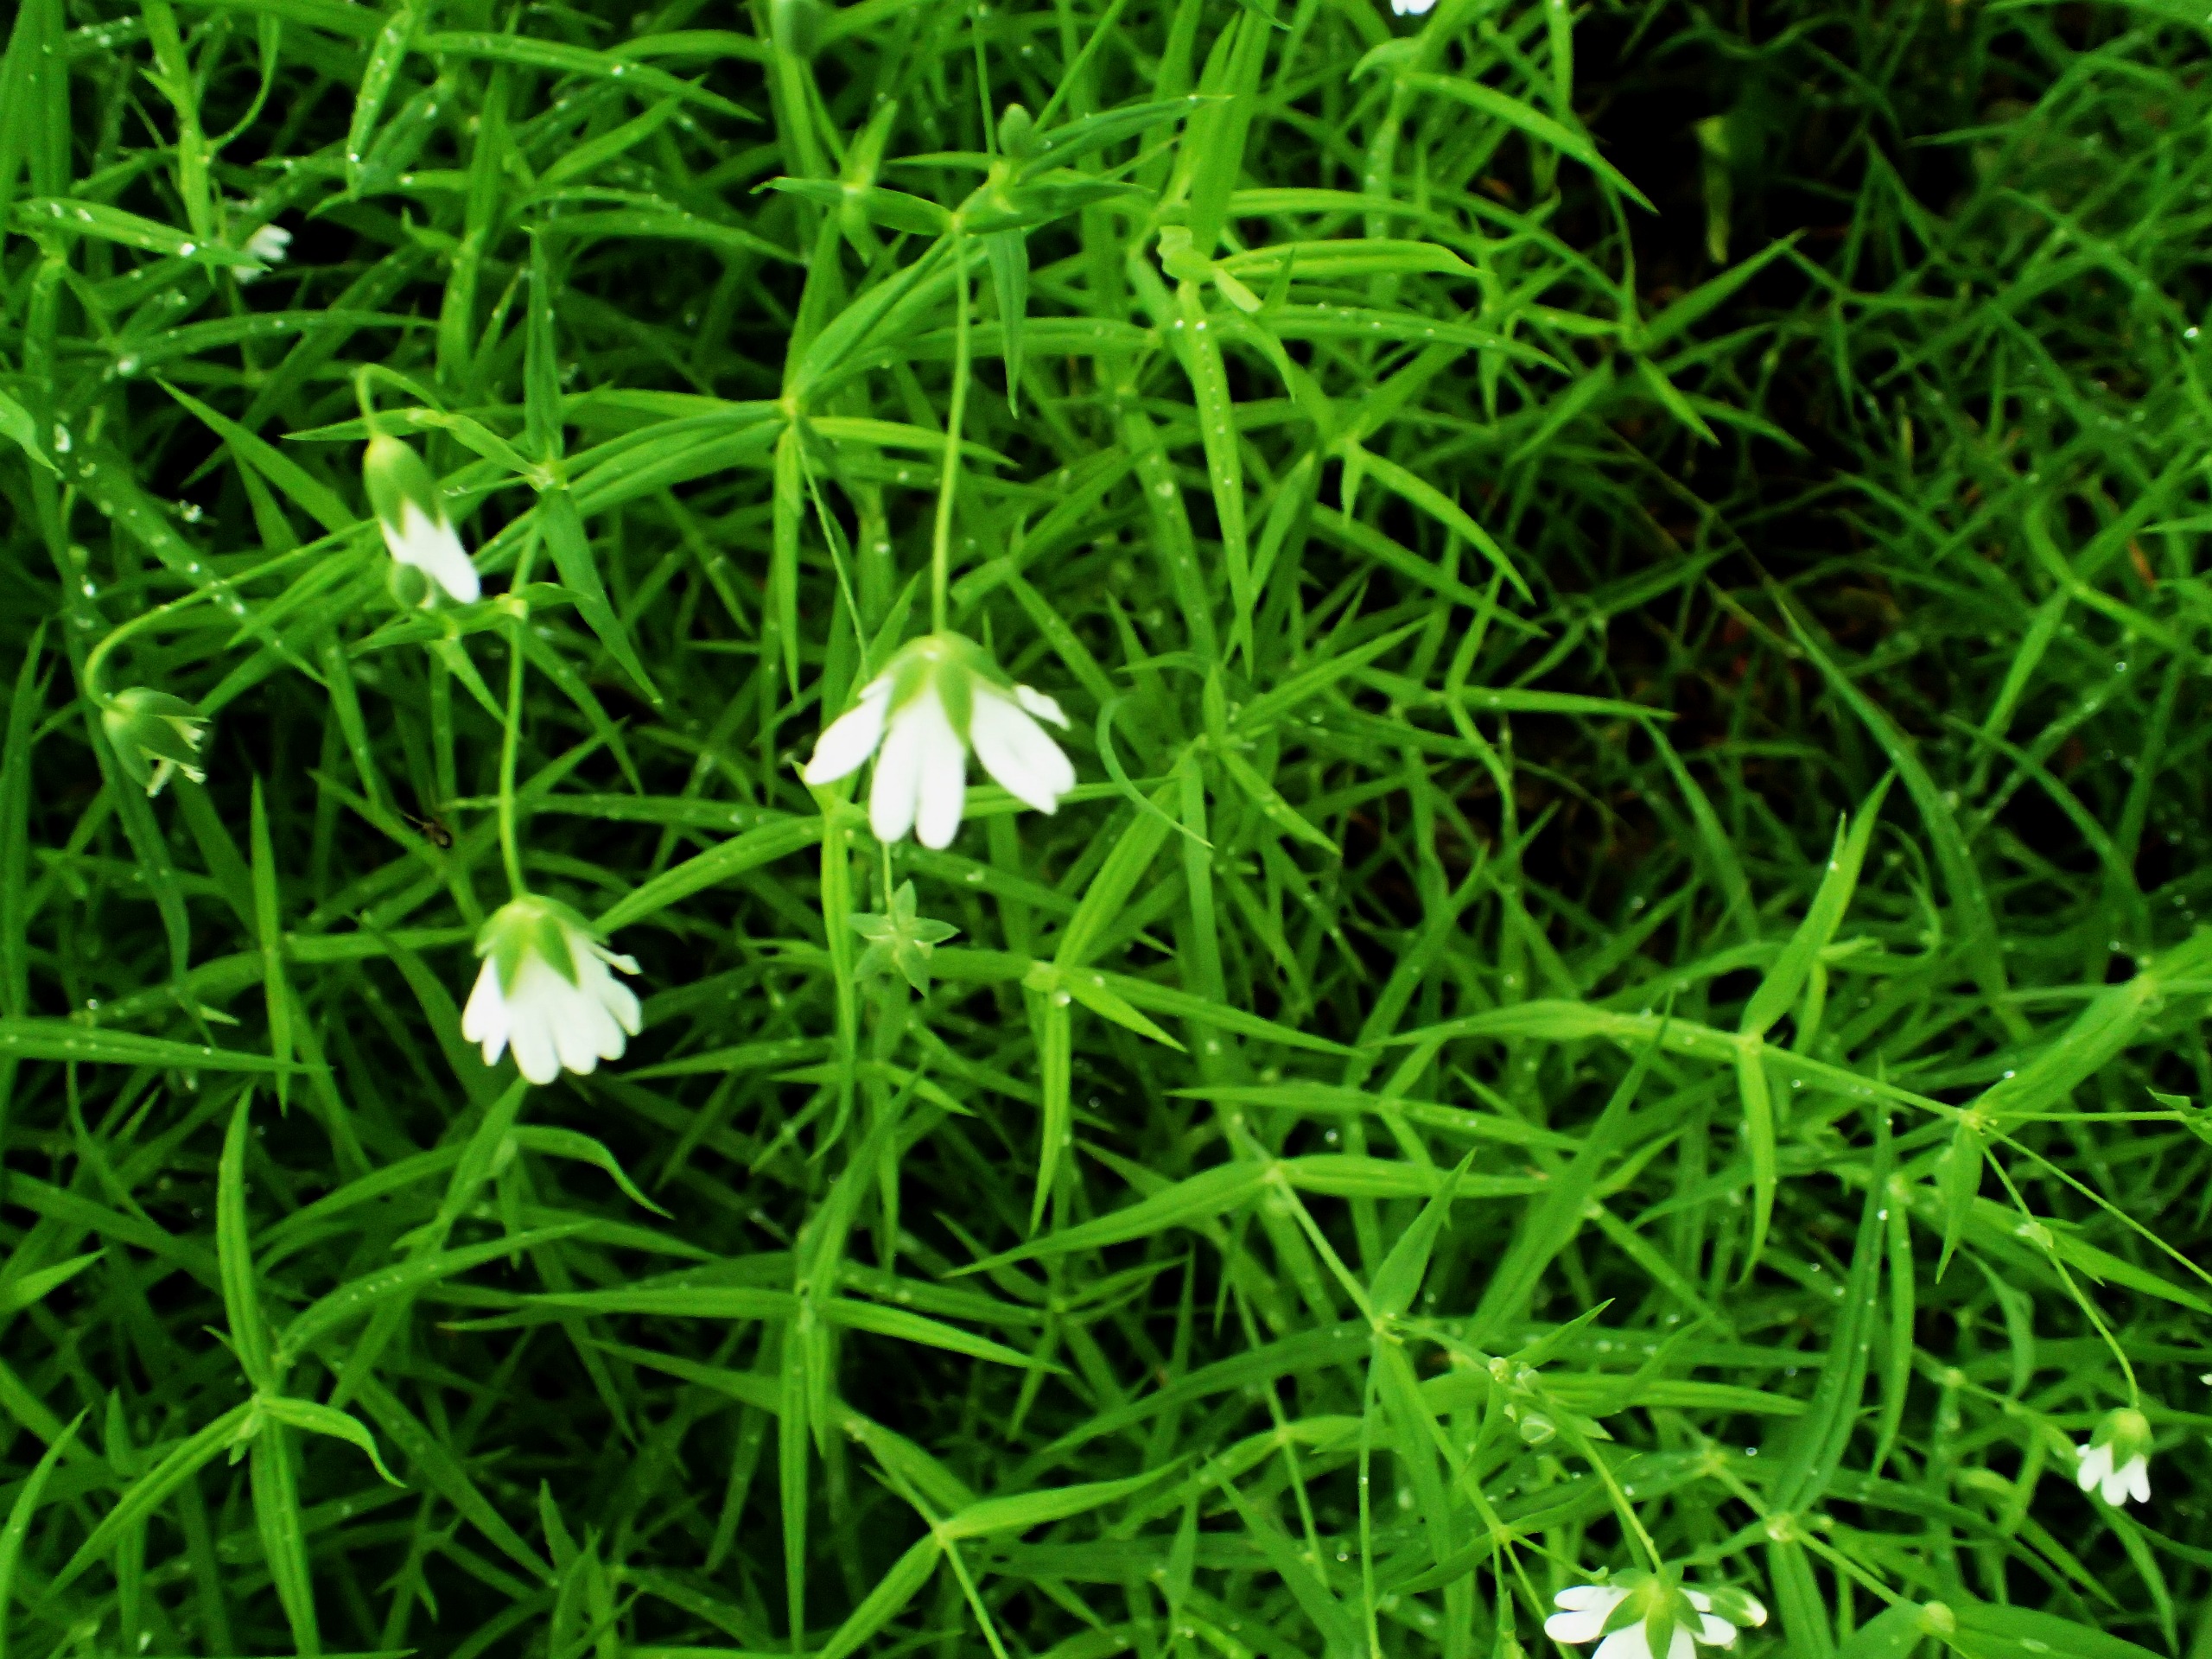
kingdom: Plantae
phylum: Tracheophyta
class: Magnoliopsida
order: Caryophyllales
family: Caryophyllaceae
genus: Rabelera
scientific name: Rabelera holostea
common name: Stor fladstjerne
